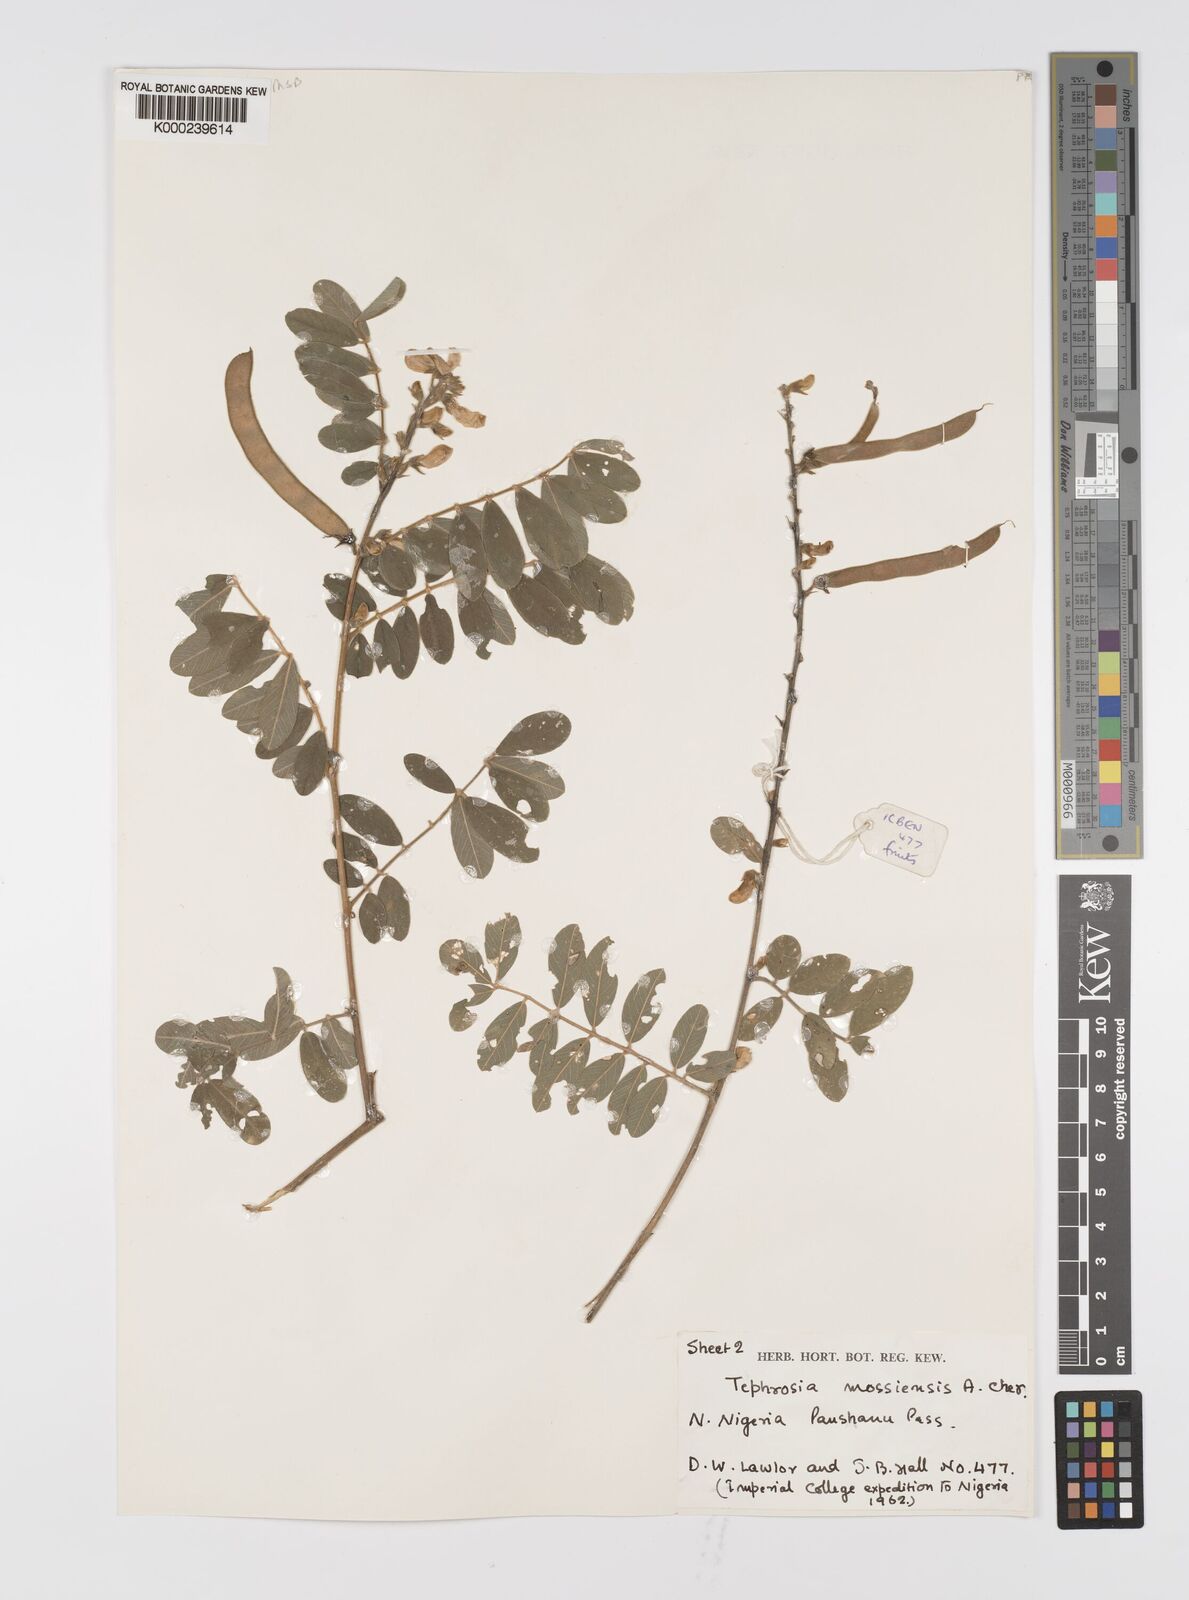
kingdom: Plantae
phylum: Tracheophyta
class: Magnoliopsida
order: Fabales
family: Fabaceae
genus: Tephrosia
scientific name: Tephrosia mossiensis
